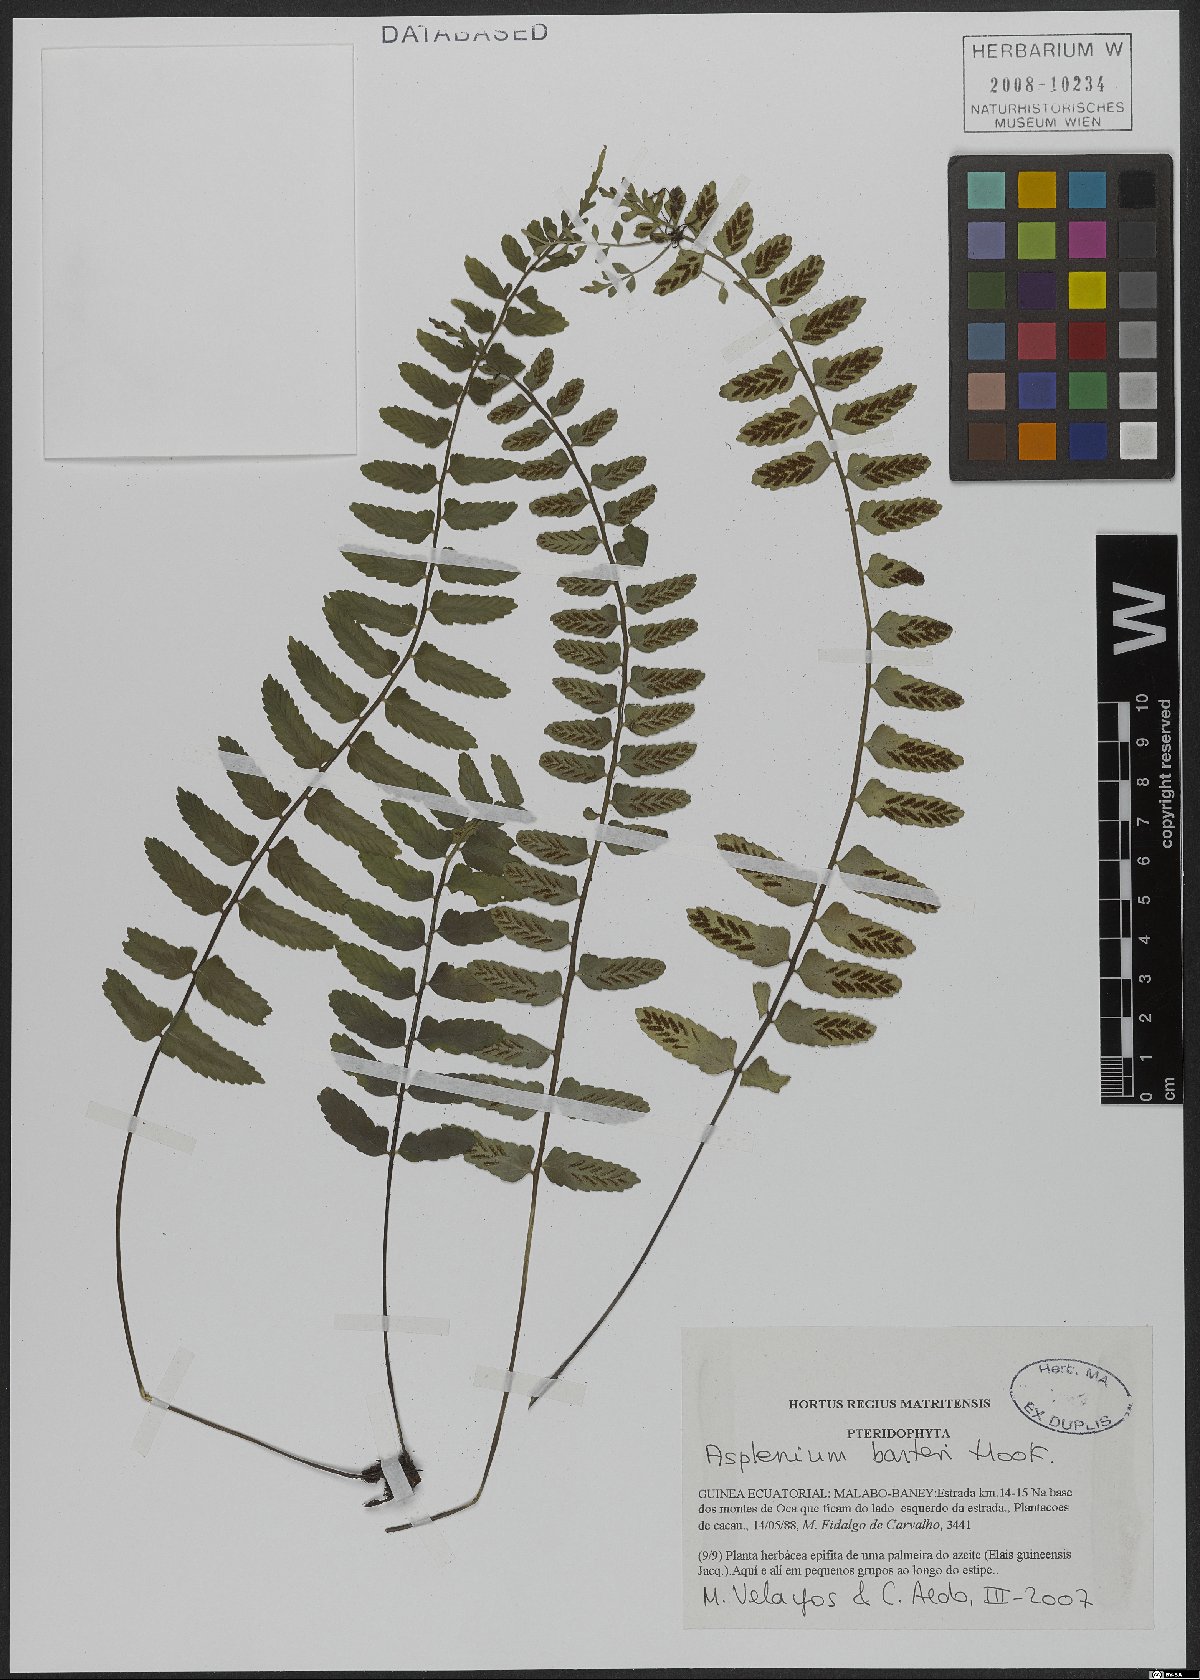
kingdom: Plantae
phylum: Tracheophyta
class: Polypodiopsida
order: Polypodiales
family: Aspleniaceae
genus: Asplenium
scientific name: Asplenium barteri
